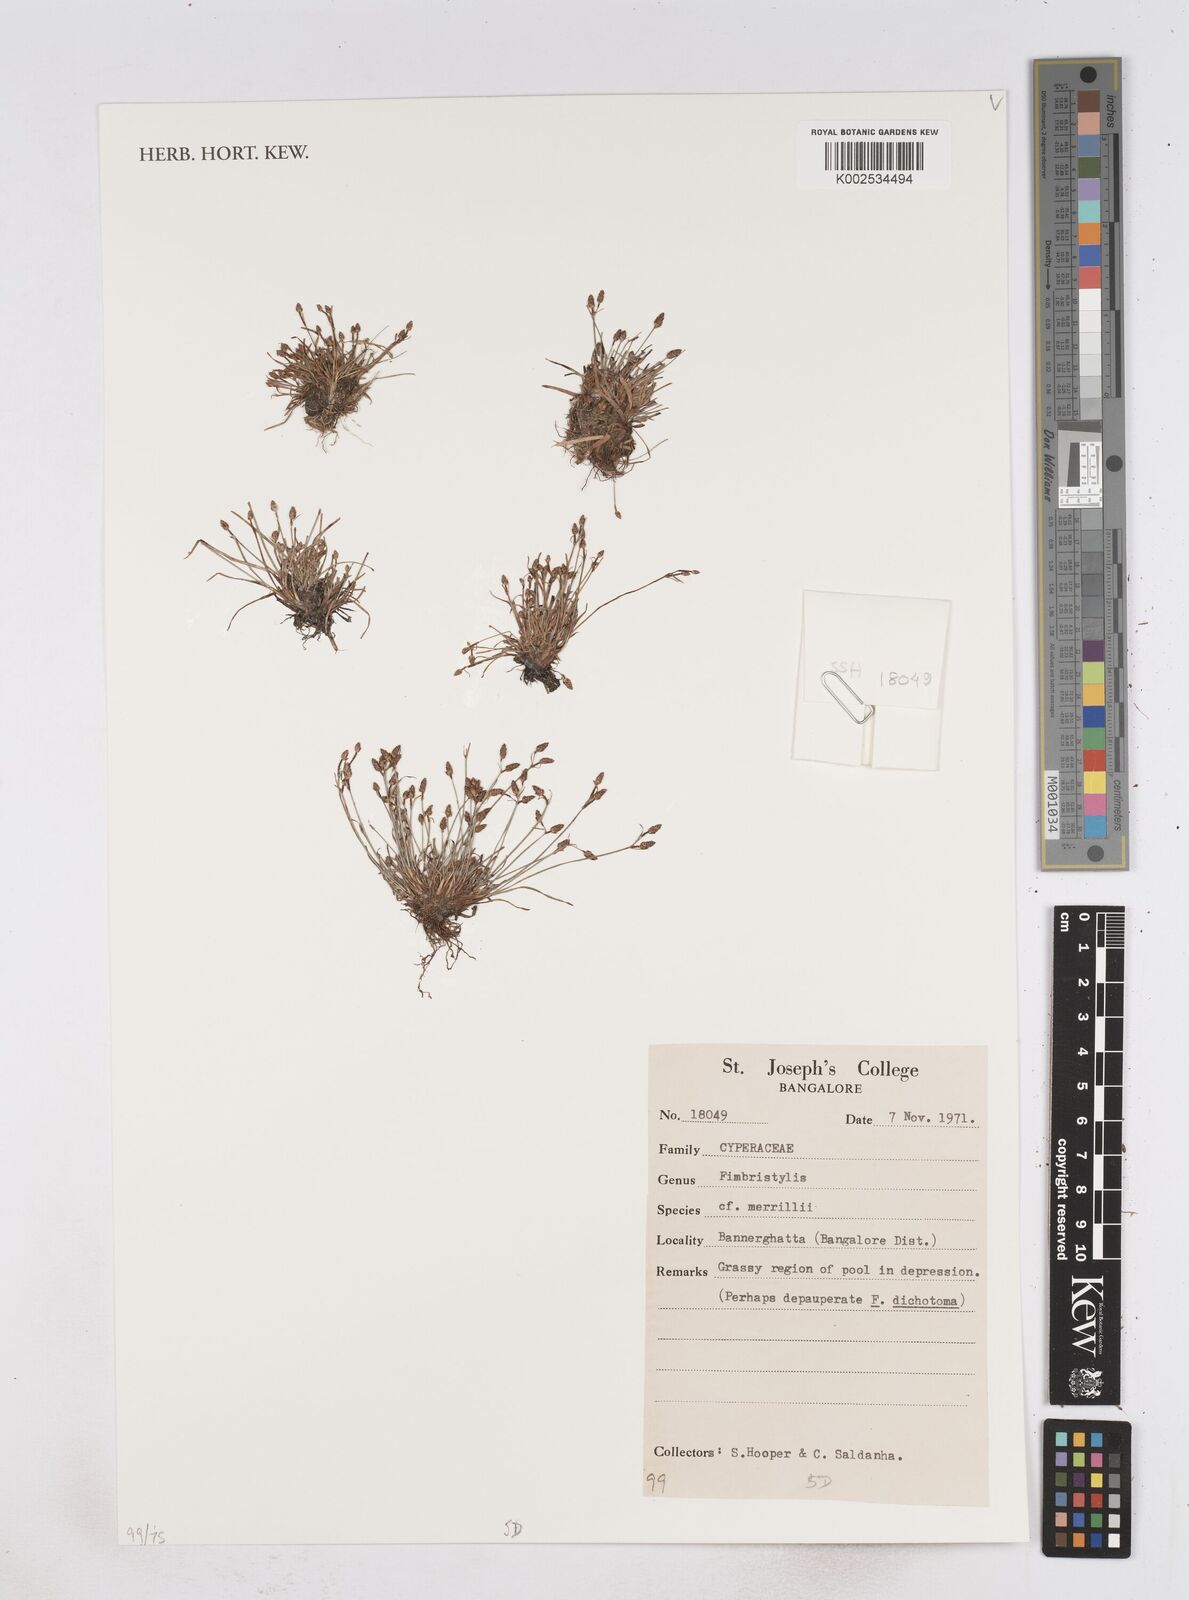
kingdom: Plantae
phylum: Tracheophyta
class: Liliopsida
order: Poales
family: Cyperaceae
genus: Fimbristylis
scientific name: Fimbristylis merrillii
